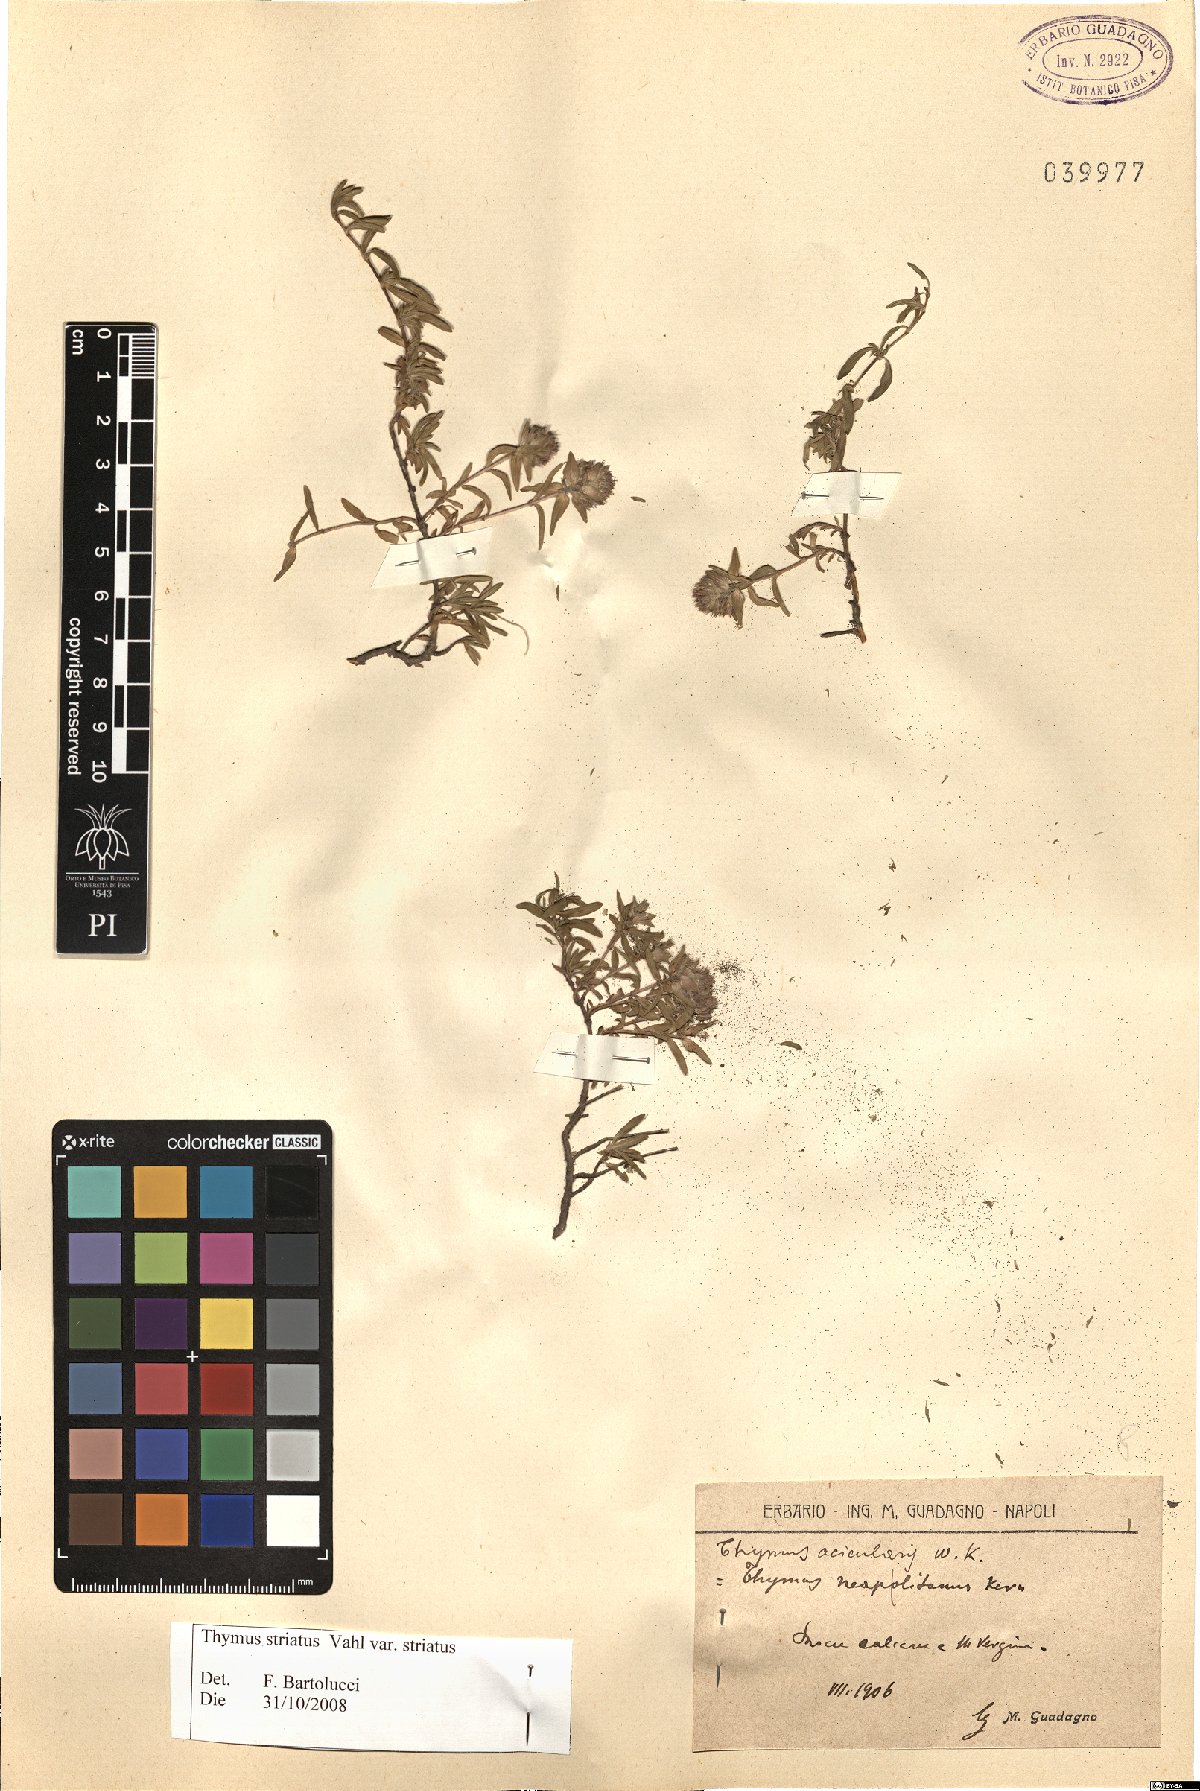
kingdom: Plantae
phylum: Tracheophyta
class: Magnoliopsida
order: Lamiales
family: Lamiaceae
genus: Thymus
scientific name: Thymus striatus
